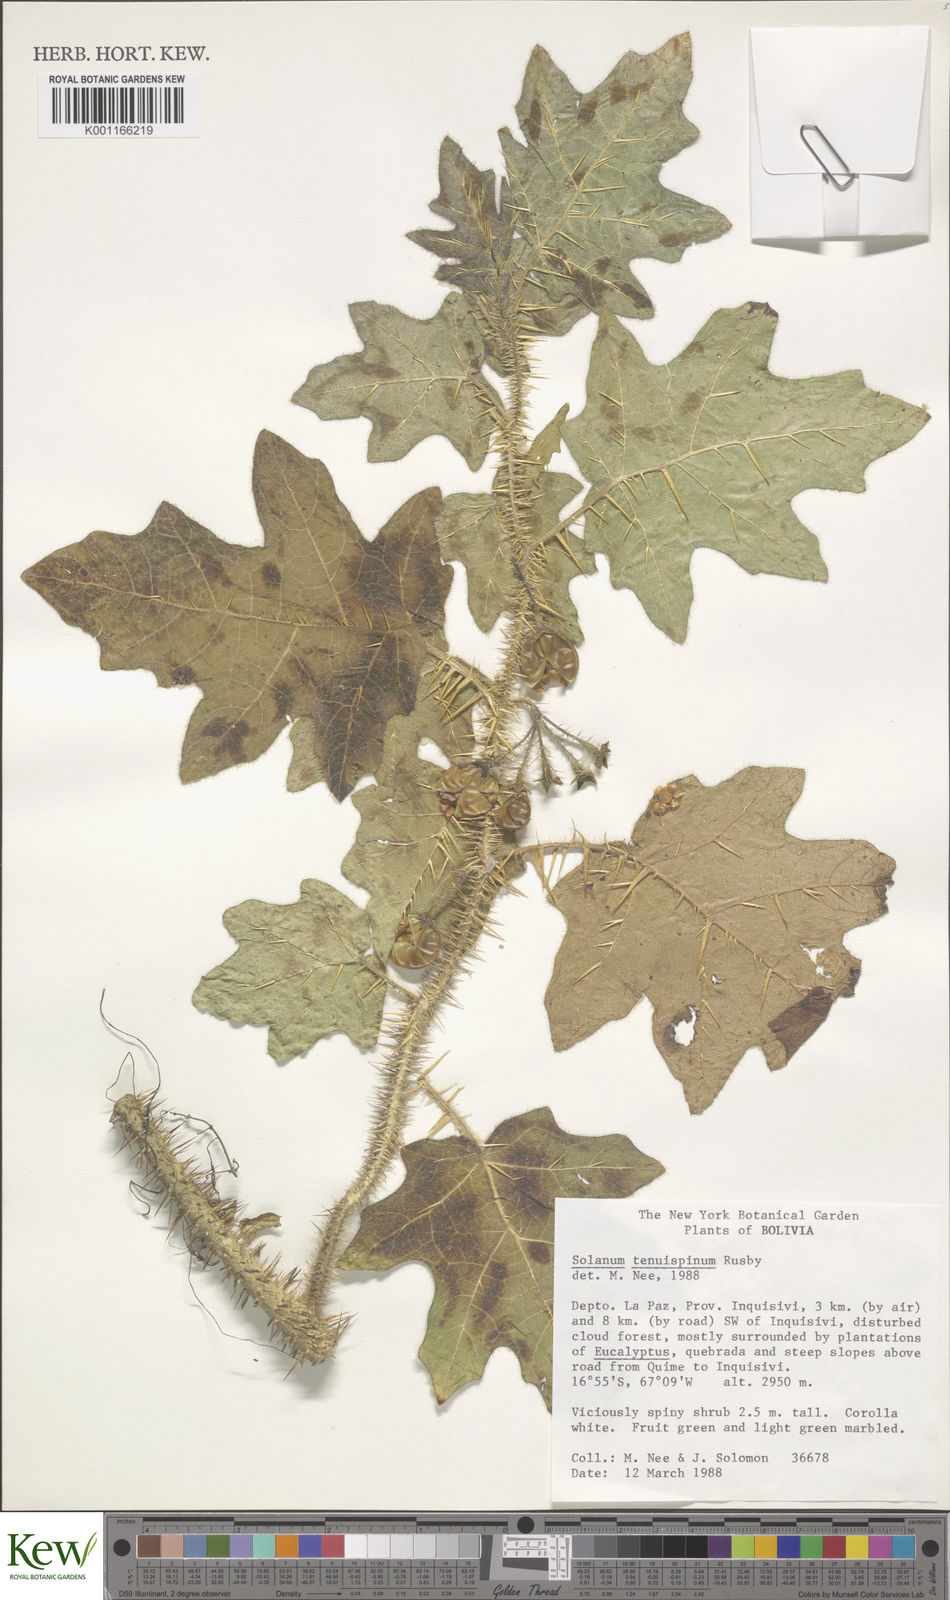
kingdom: Plantae
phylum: Tracheophyta
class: Magnoliopsida
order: Solanales
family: Solanaceae
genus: Solanum
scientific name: Solanum tenuispinum
